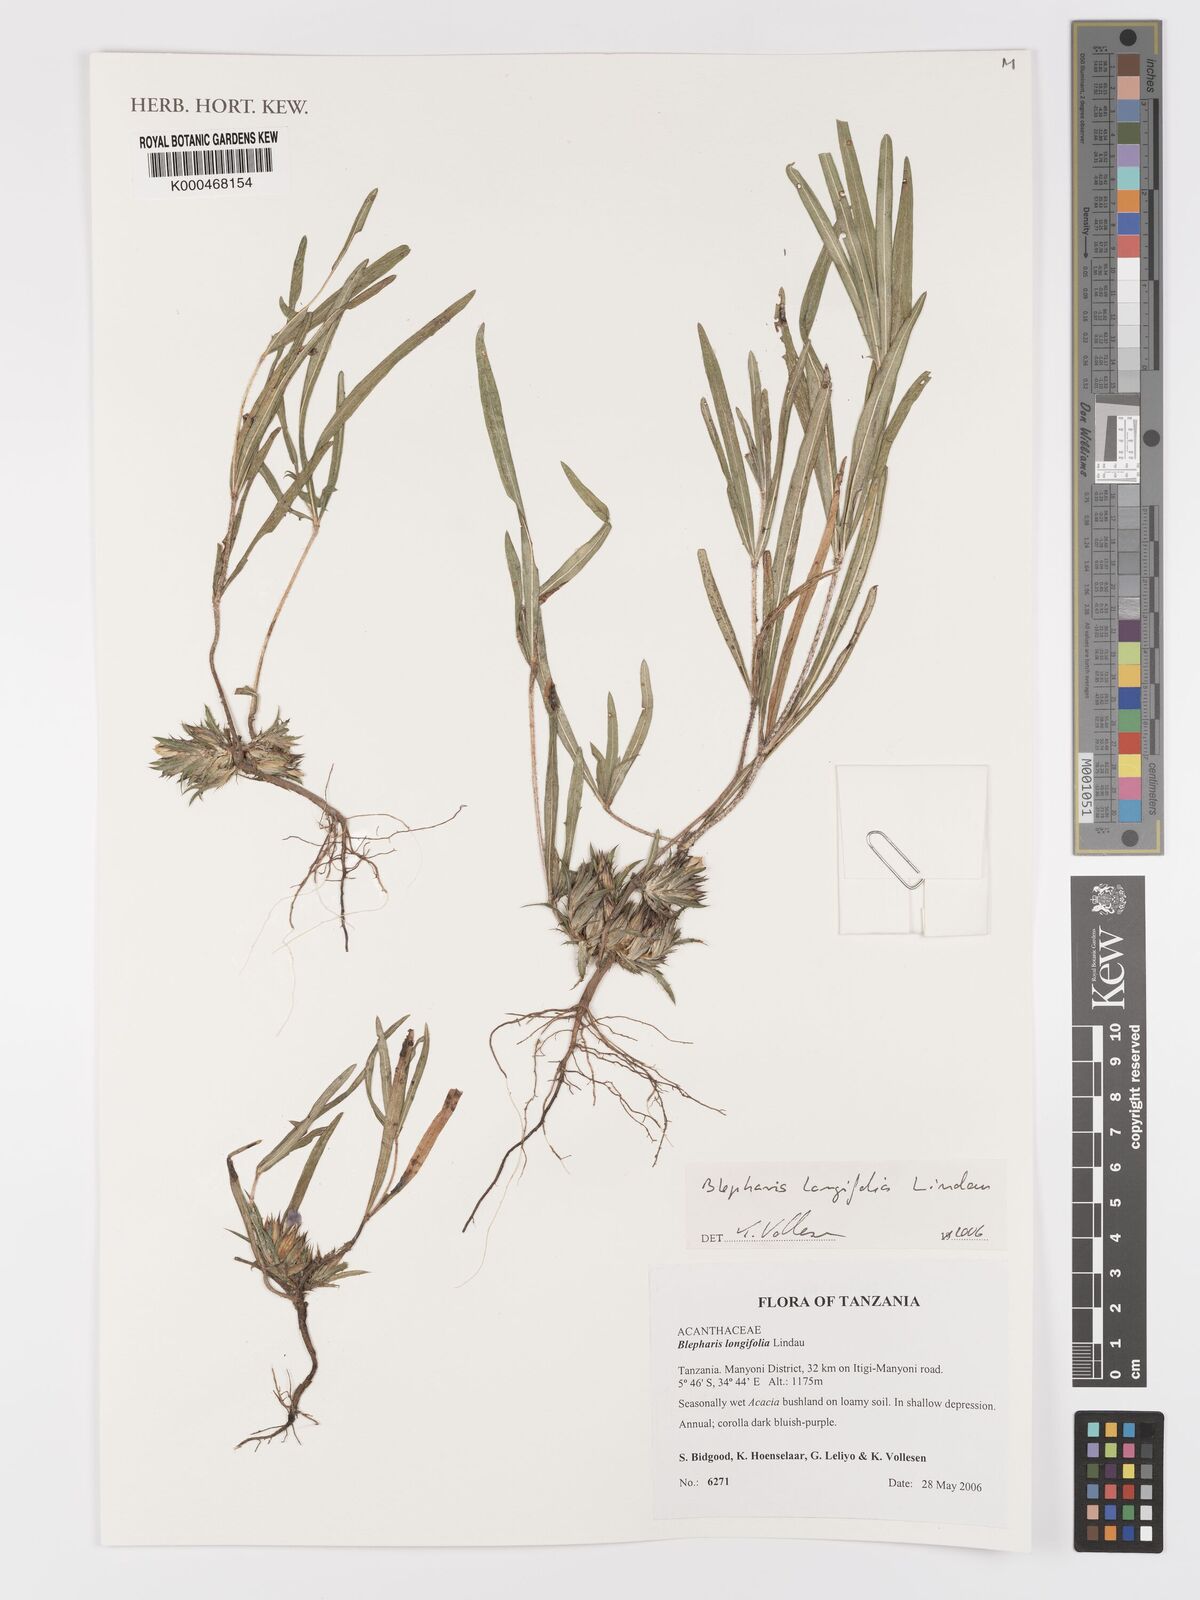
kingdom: Plantae
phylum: Tracheophyta
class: Magnoliopsida
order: Lamiales
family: Acanthaceae
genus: Blepharis
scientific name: Blepharis longifolia
